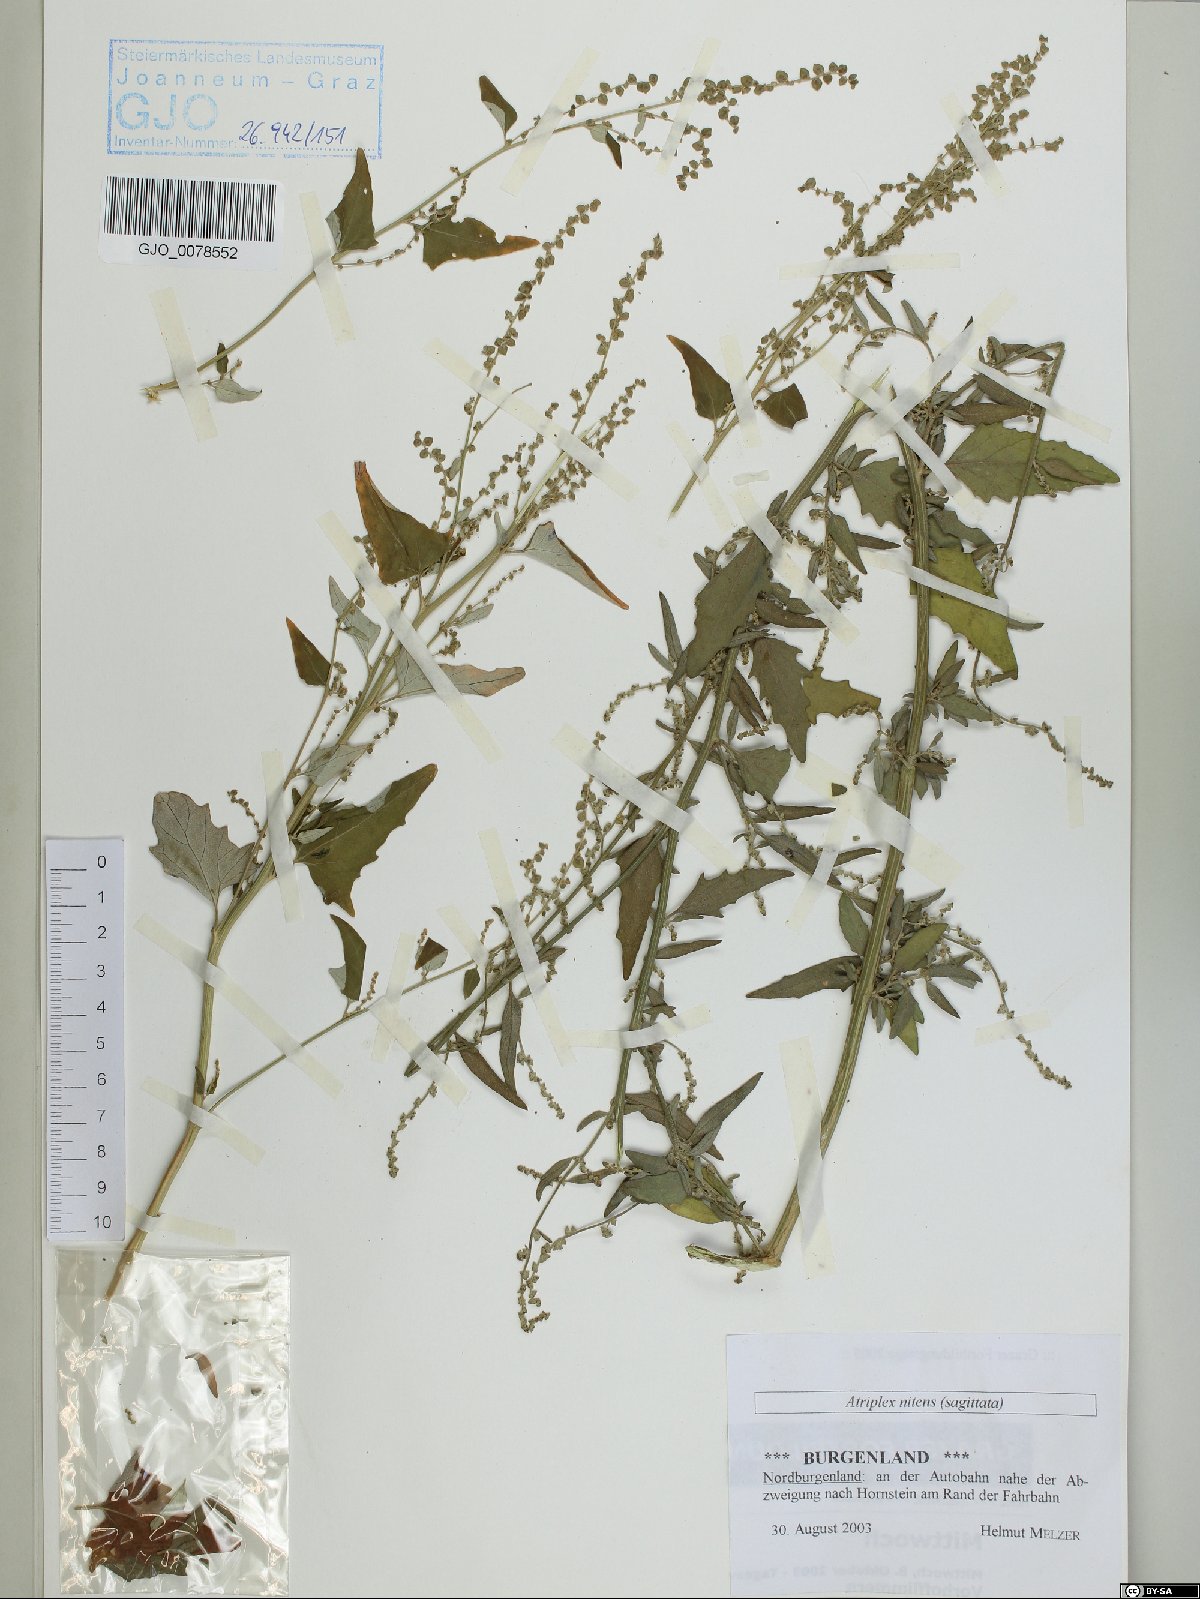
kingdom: Plantae
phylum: Tracheophyta
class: Magnoliopsida
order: Caryophyllales
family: Amaranthaceae
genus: Atriplex
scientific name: Atriplex sagittata
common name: Purple orache
